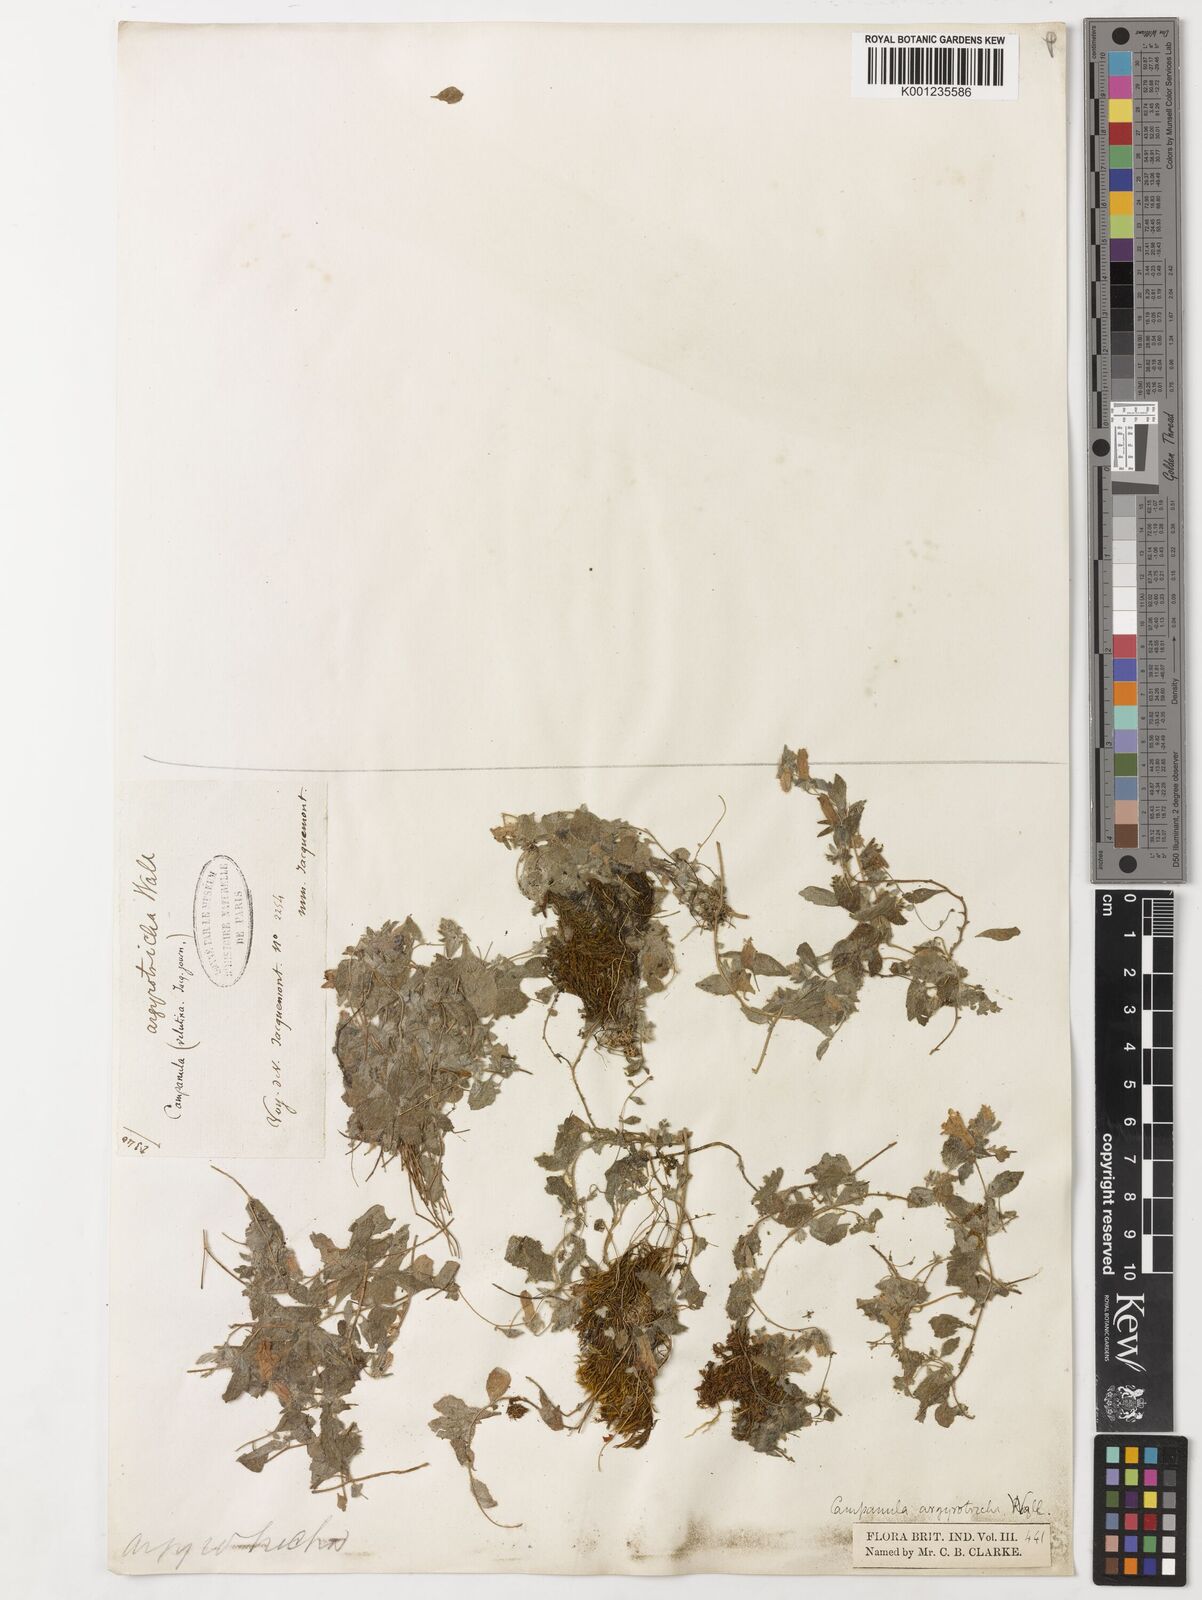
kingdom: Plantae
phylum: Tracheophyta
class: Magnoliopsida
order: Asterales
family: Campanulaceae
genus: Campanula
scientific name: Campanula argyrotricha
